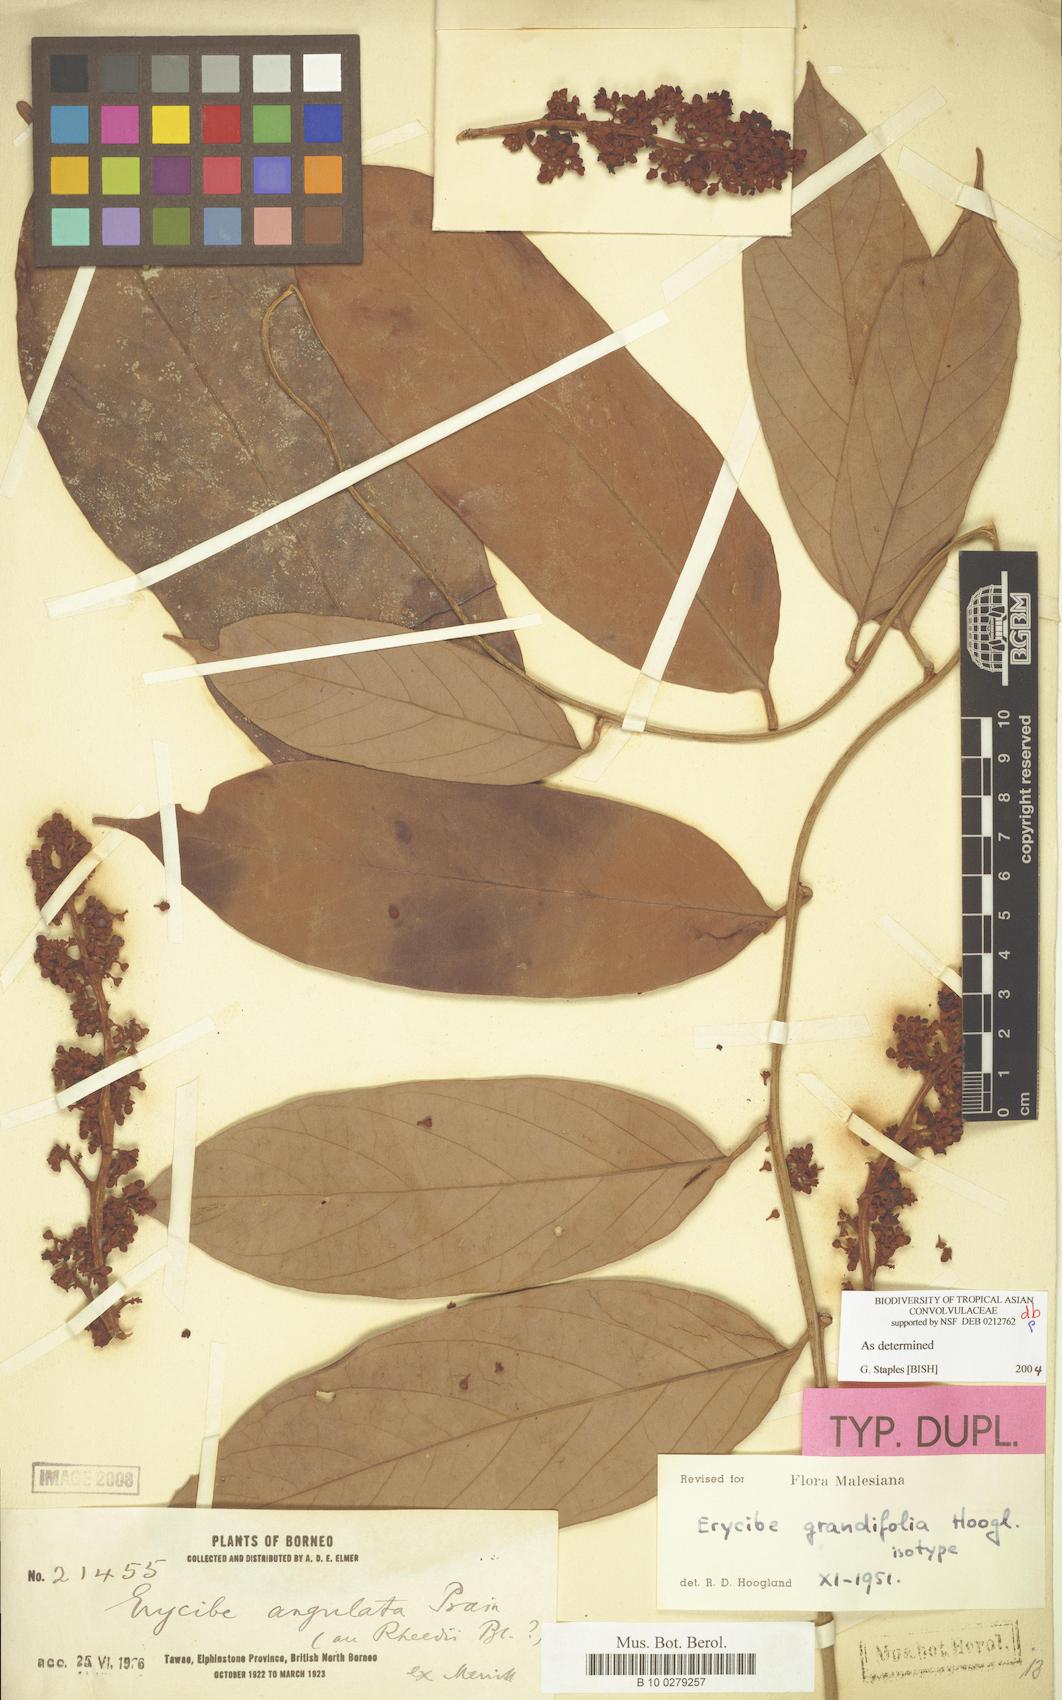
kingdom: Plantae
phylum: Tracheophyta
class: Magnoliopsida
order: Solanales
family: Convolvulaceae
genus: Erycibe
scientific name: Erycibe grandifolia
